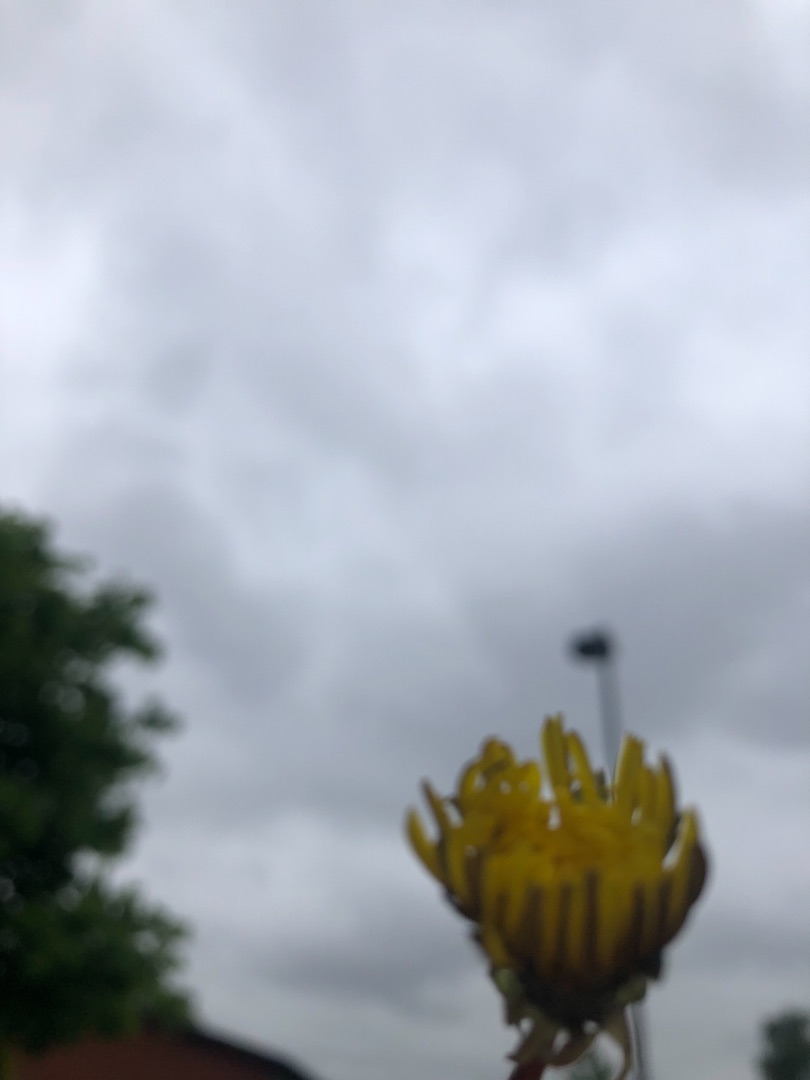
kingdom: Plantae
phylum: Tracheophyta
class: Magnoliopsida
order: Asterales
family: Asteraceae
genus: Taraxacum
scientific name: Taraxacum
